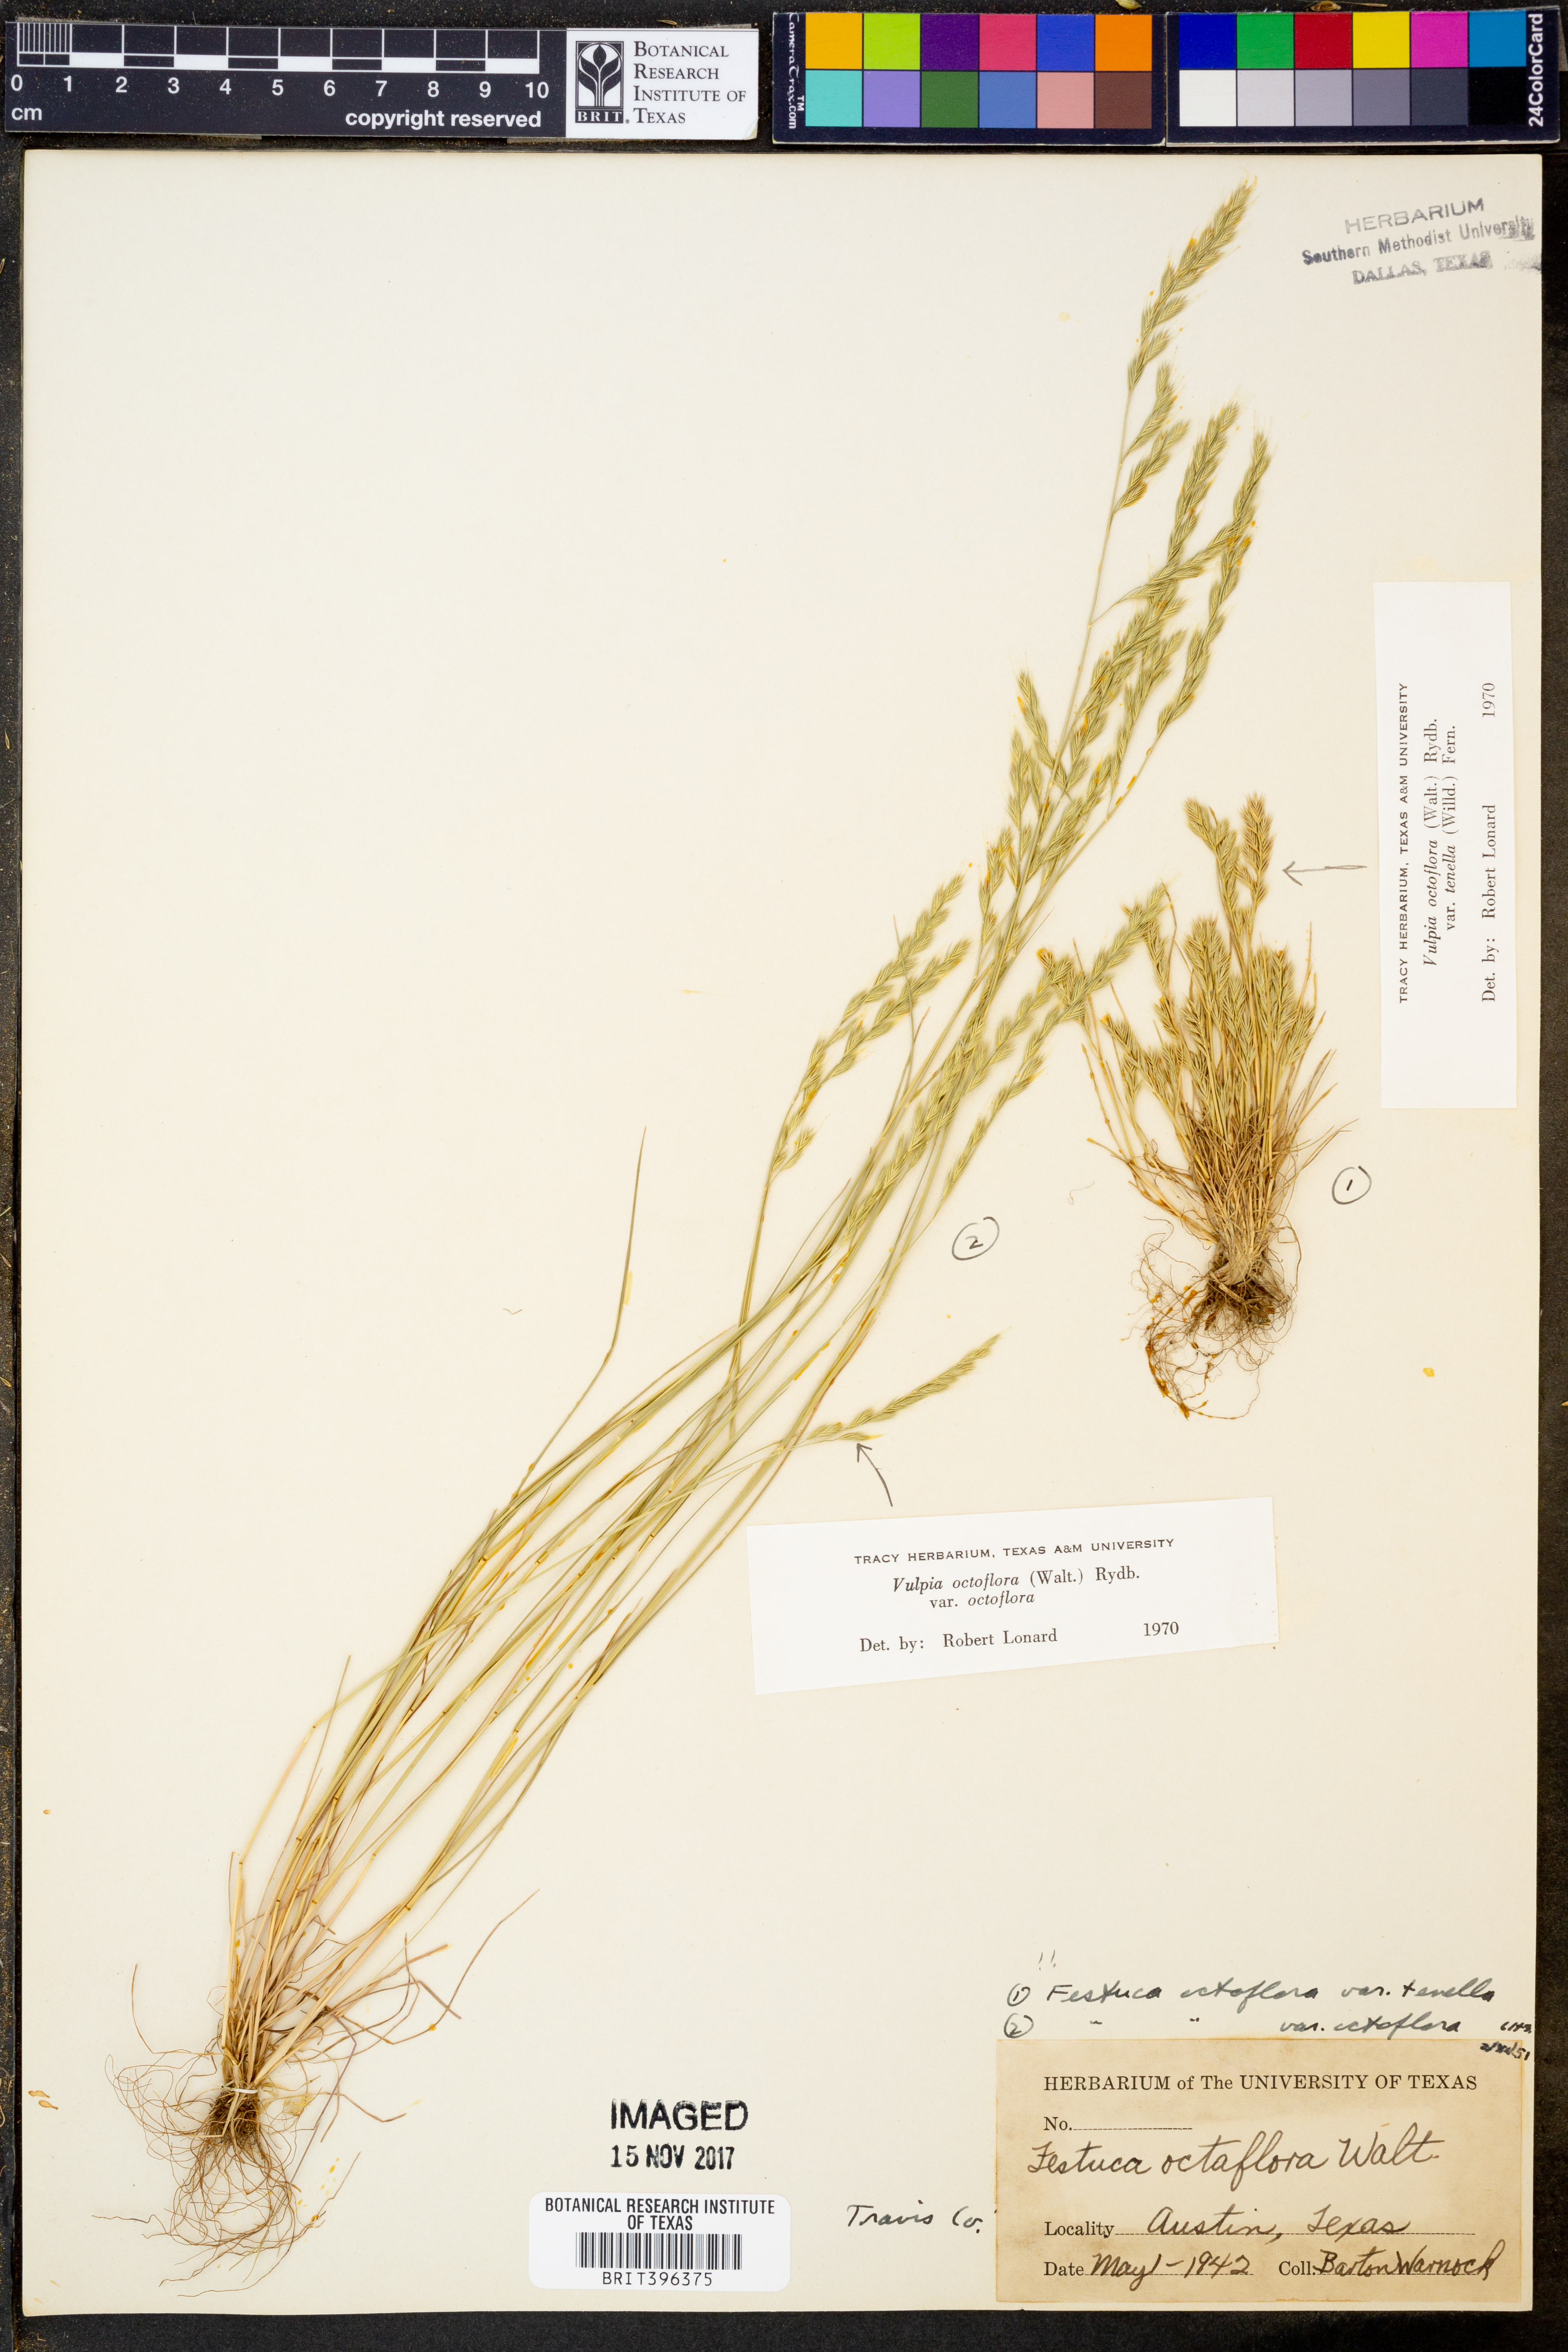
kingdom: Plantae
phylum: Tracheophyta
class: Liliopsida
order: Poales
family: Poaceae
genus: Festuca
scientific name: Festuca octoflora
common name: Sixweeks grass
